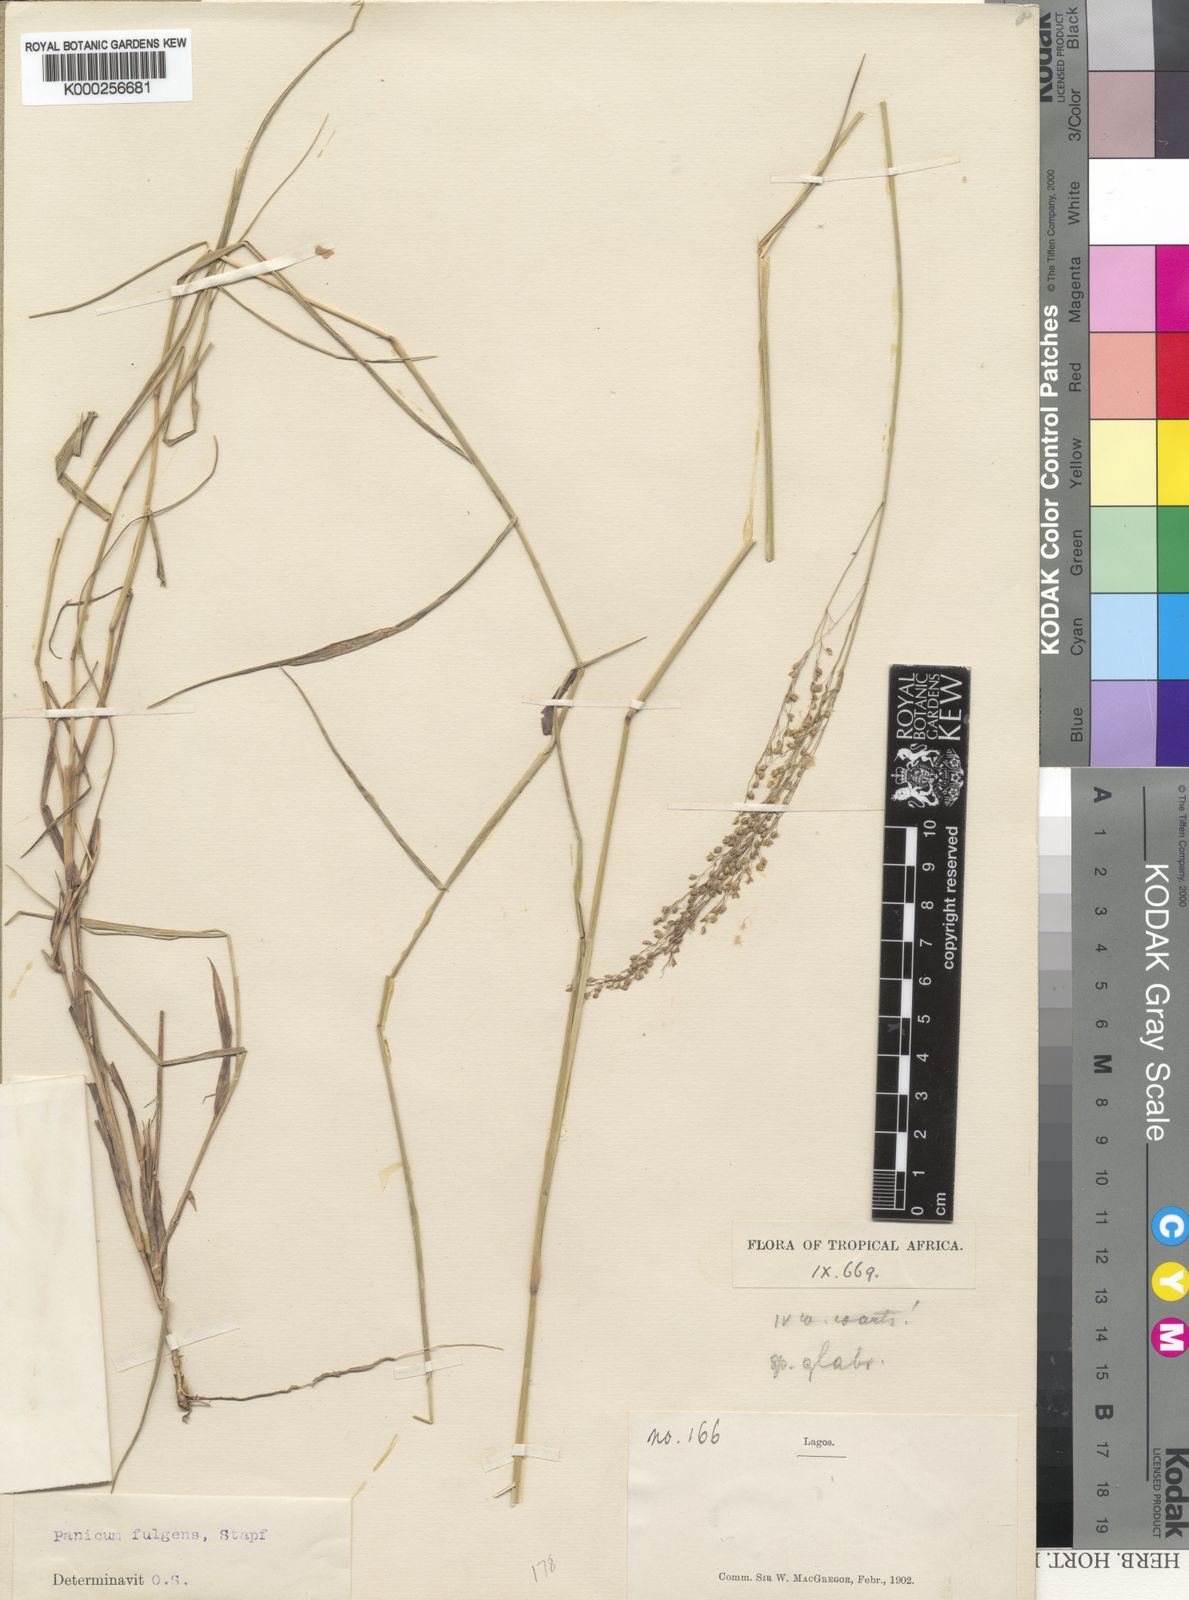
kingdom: Plantae
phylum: Tracheophyta
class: Liliopsida
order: Poales
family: Poaceae
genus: Trichanthecium
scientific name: Trichanthecium nervatum
